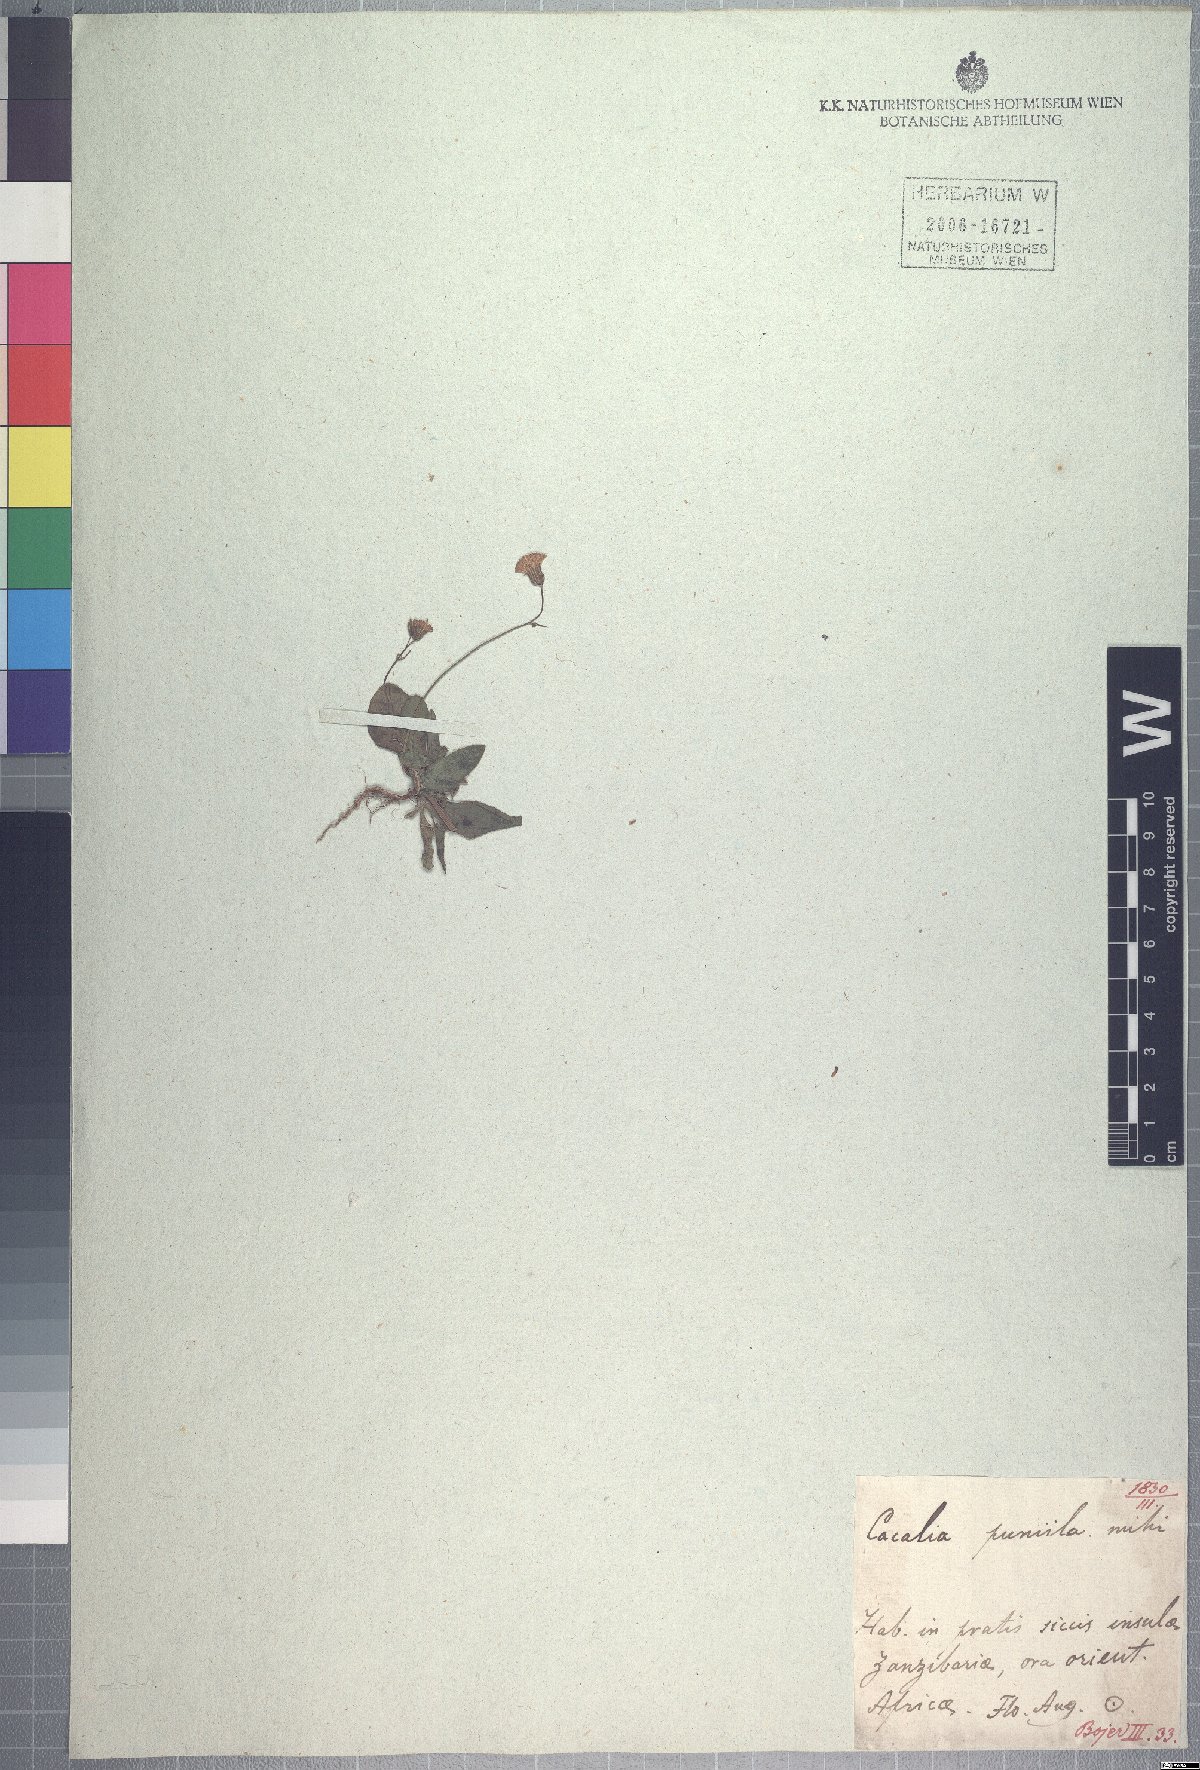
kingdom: Plantae
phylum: Tracheophyta
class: Magnoliopsida
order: Asterales
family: Asteraceae
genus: Emilia
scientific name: Emilia pumila
